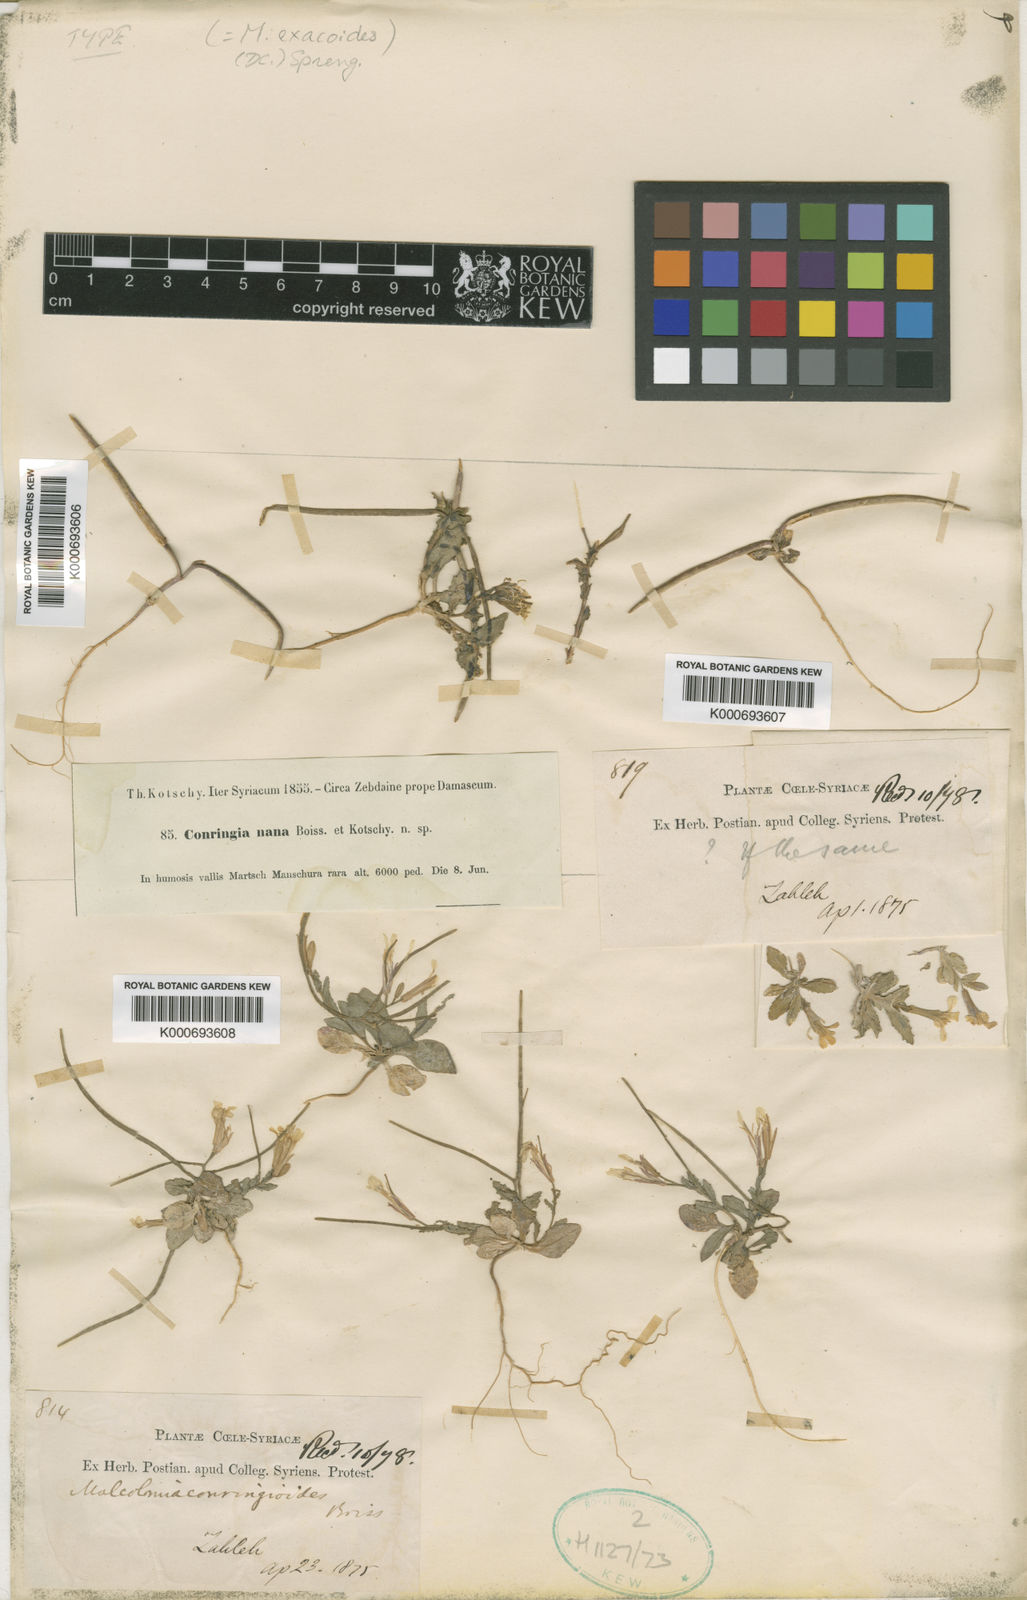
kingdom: Plantae
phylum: Tracheophyta
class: Magnoliopsida
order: Brassicales
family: Brassicaceae
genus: Zuvanda
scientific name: Zuvanda exacoides
